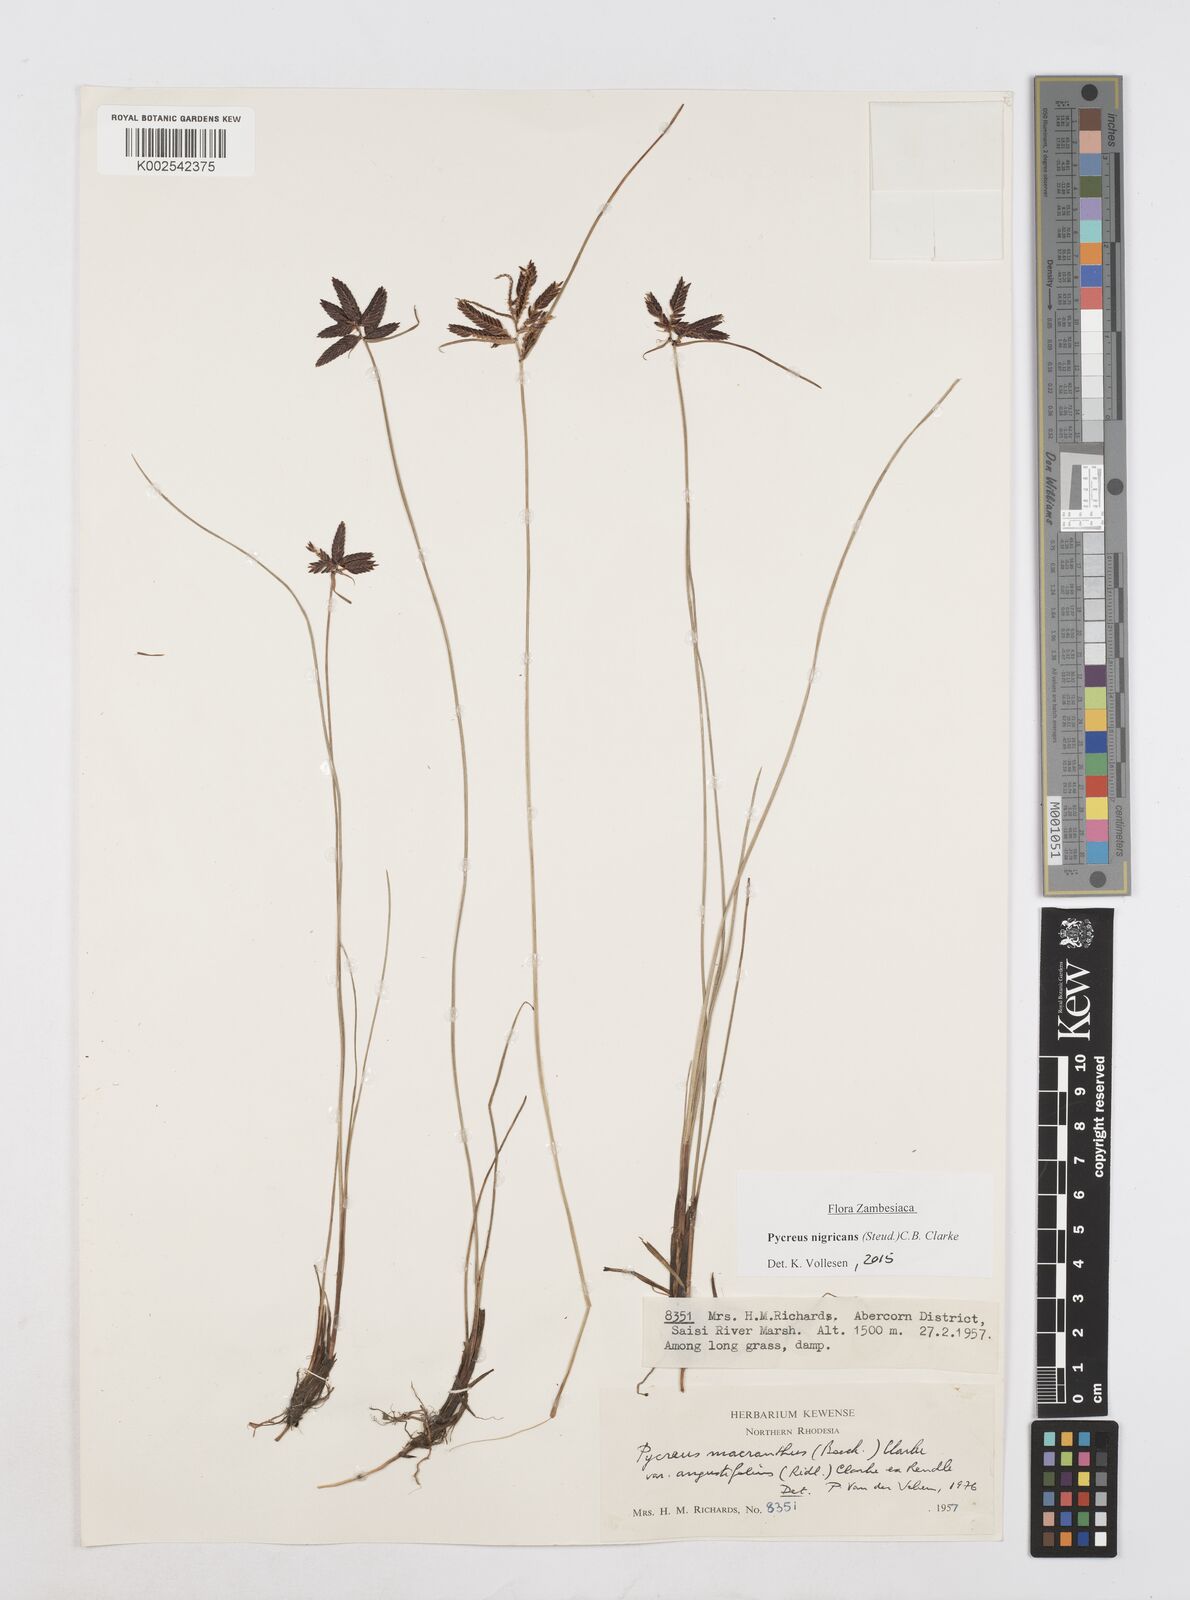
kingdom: Plantae
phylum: Tracheophyta
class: Liliopsida
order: Poales
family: Cyperaceae
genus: Cyperus
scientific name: Cyperus nigricans
